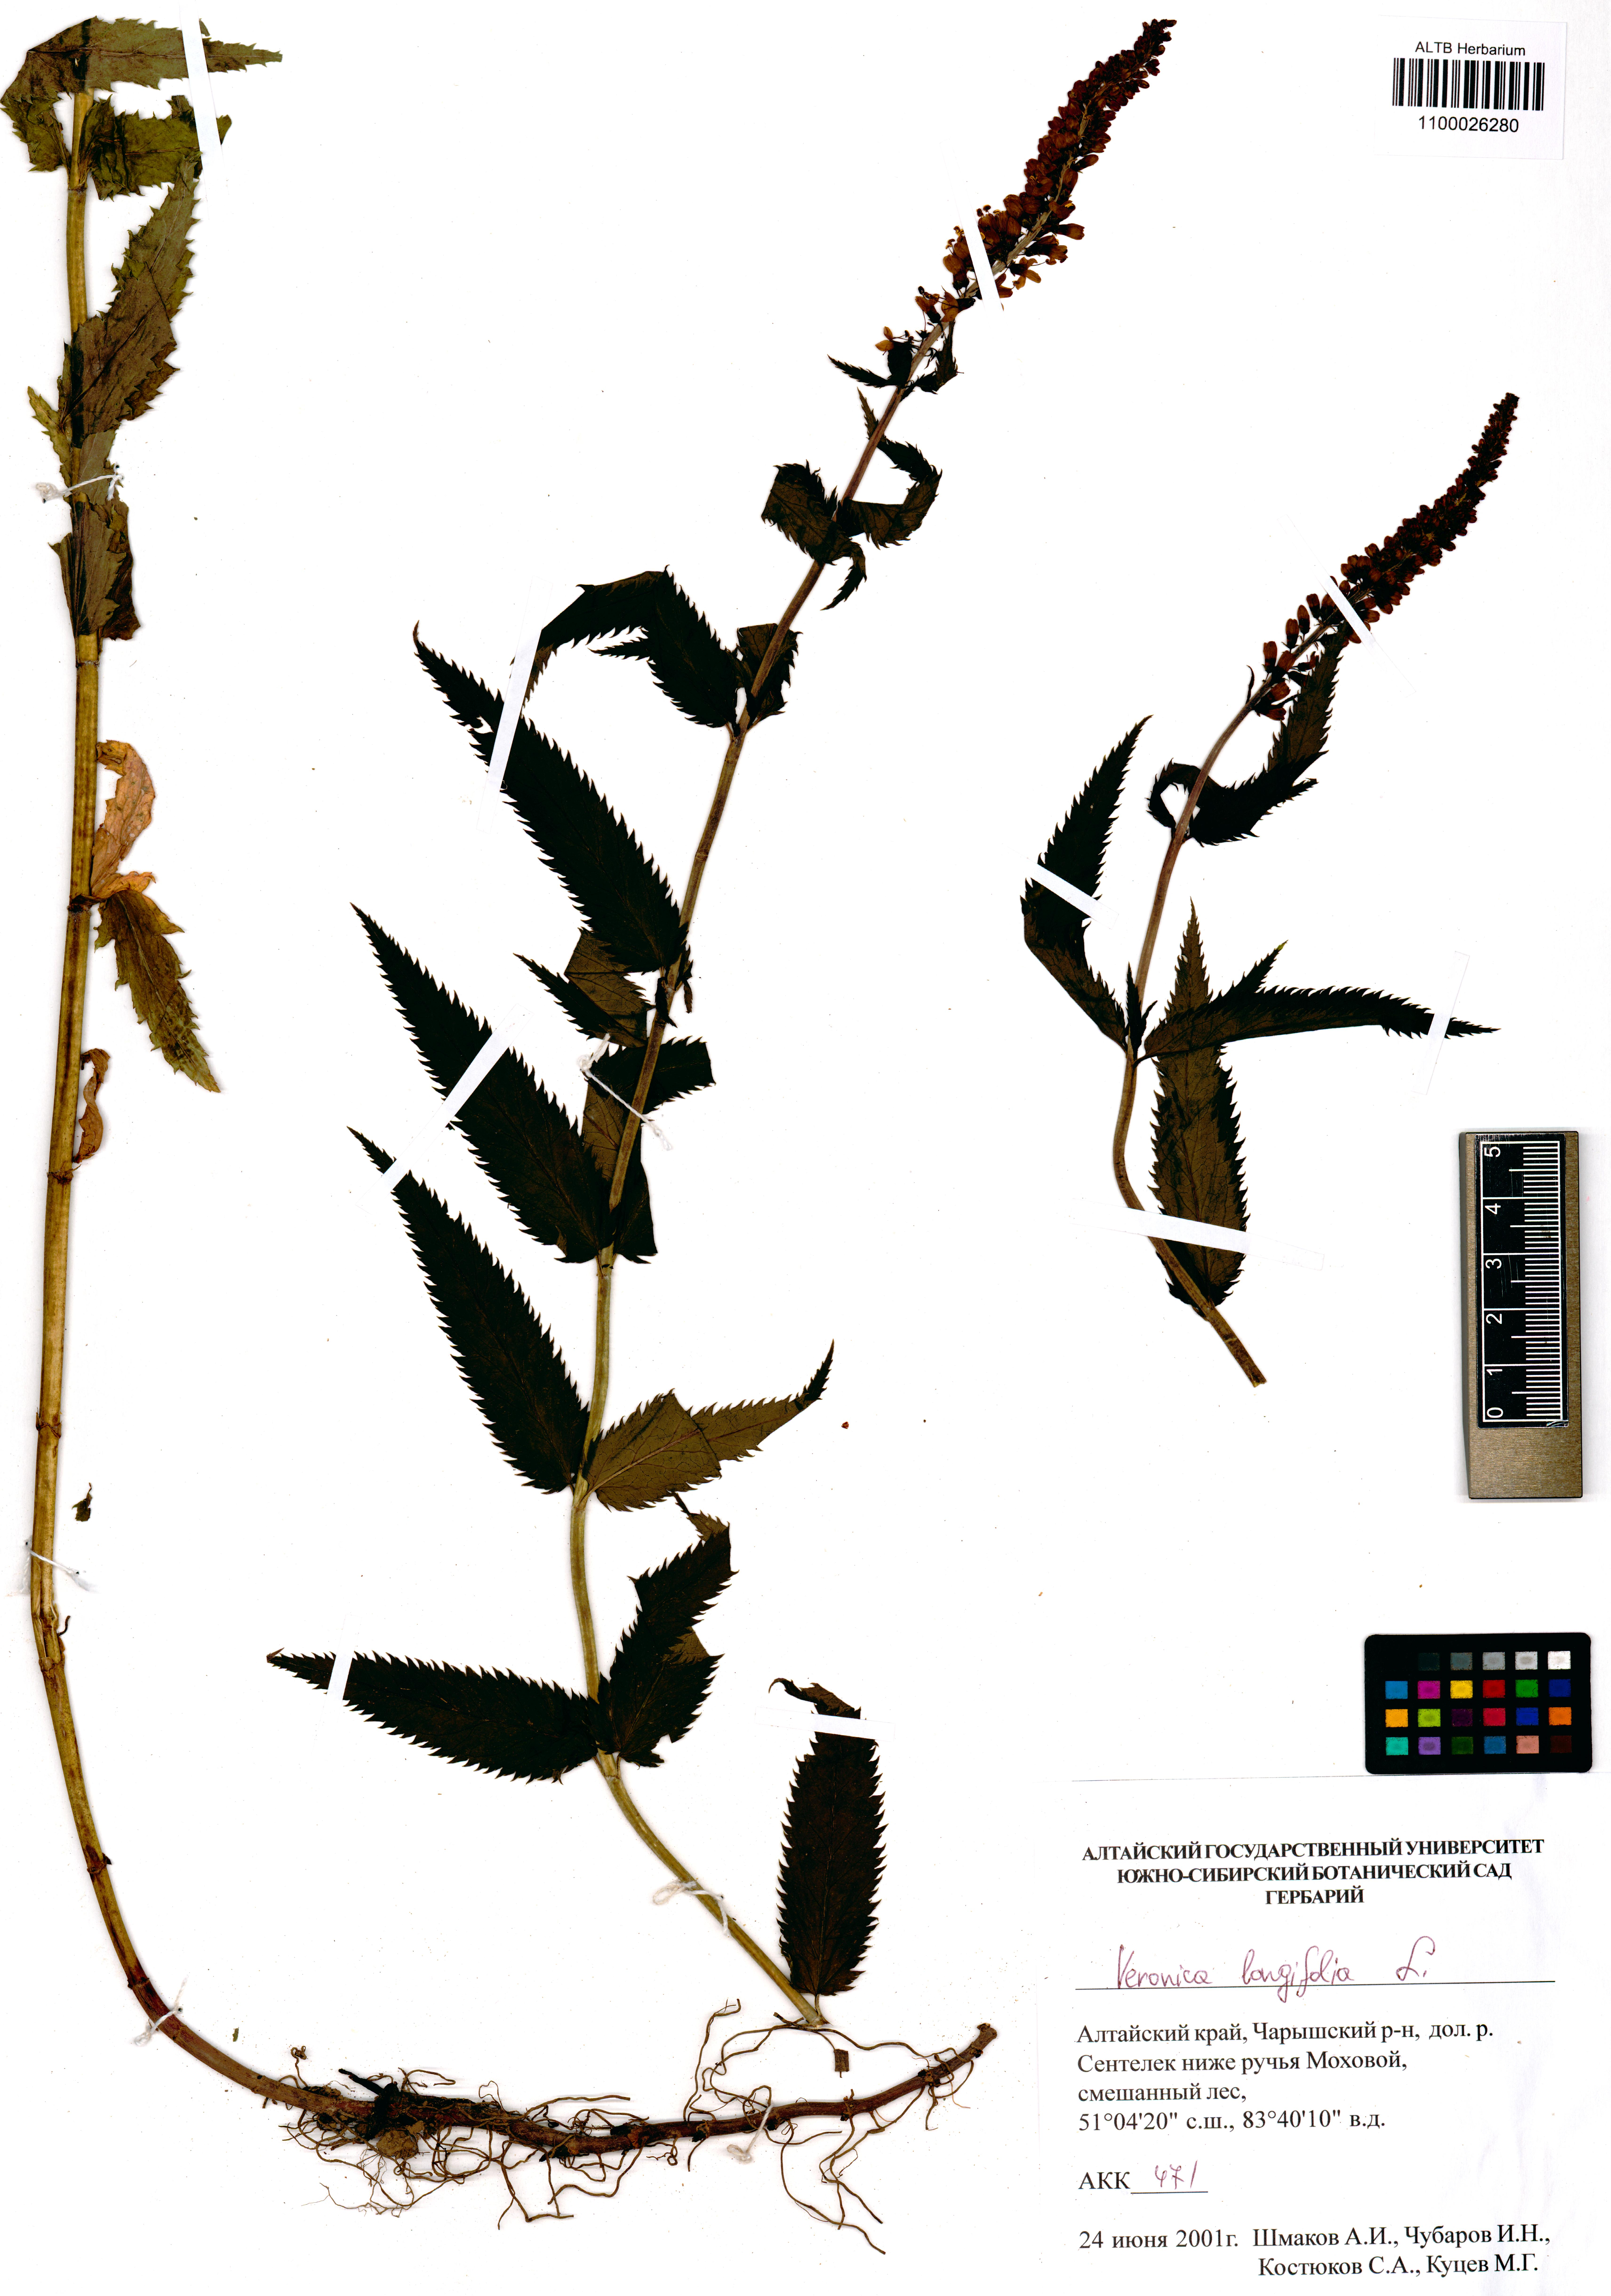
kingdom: Plantae
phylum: Tracheophyta
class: Magnoliopsida
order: Lamiales
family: Plantaginaceae
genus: Veronica
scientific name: Veronica longifolia
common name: Garden speedwell
